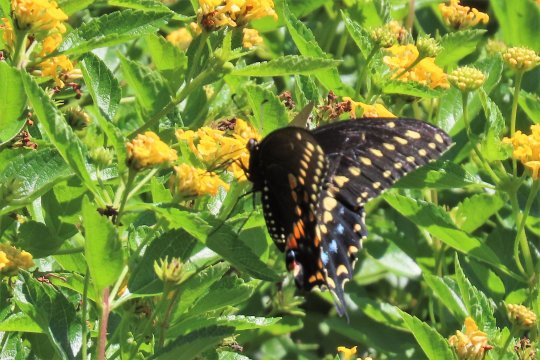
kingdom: Animalia
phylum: Arthropoda
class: Insecta
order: Lepidoptera
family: Papilionidae
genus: Papilio
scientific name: Papilio polyxenes
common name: Black Swallowtail
